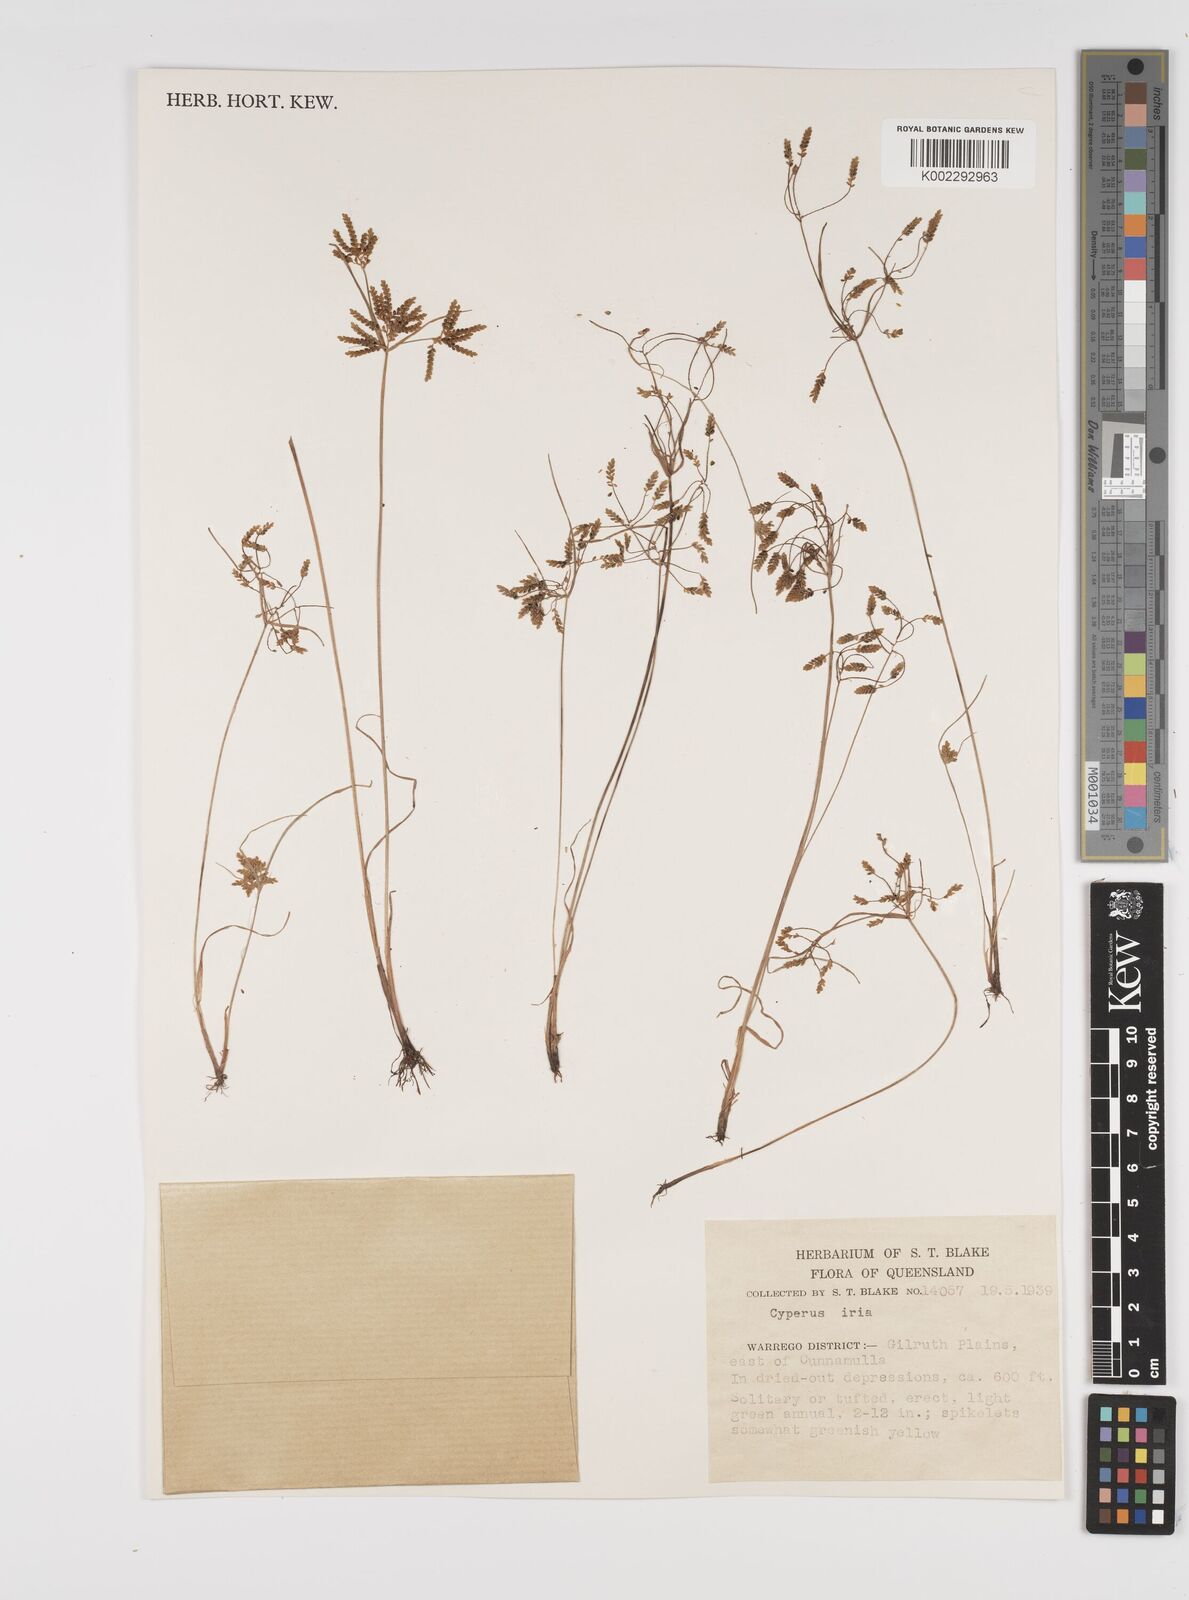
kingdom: Plantae
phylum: Tracheophyta
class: Liliopsida
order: Poales
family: Cyperaceae
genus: Cyperus
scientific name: Cyperus iria
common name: Ricefield flatsedge
